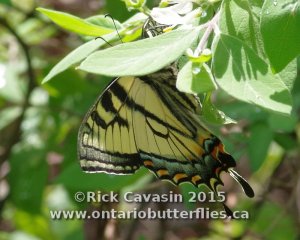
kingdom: Animalia
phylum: Arthropoda
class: Insecta
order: Lepidoptera
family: Papilionidae
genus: Pterourus
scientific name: Pterourus canadensis
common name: Canadian Tiger Swallowtail
